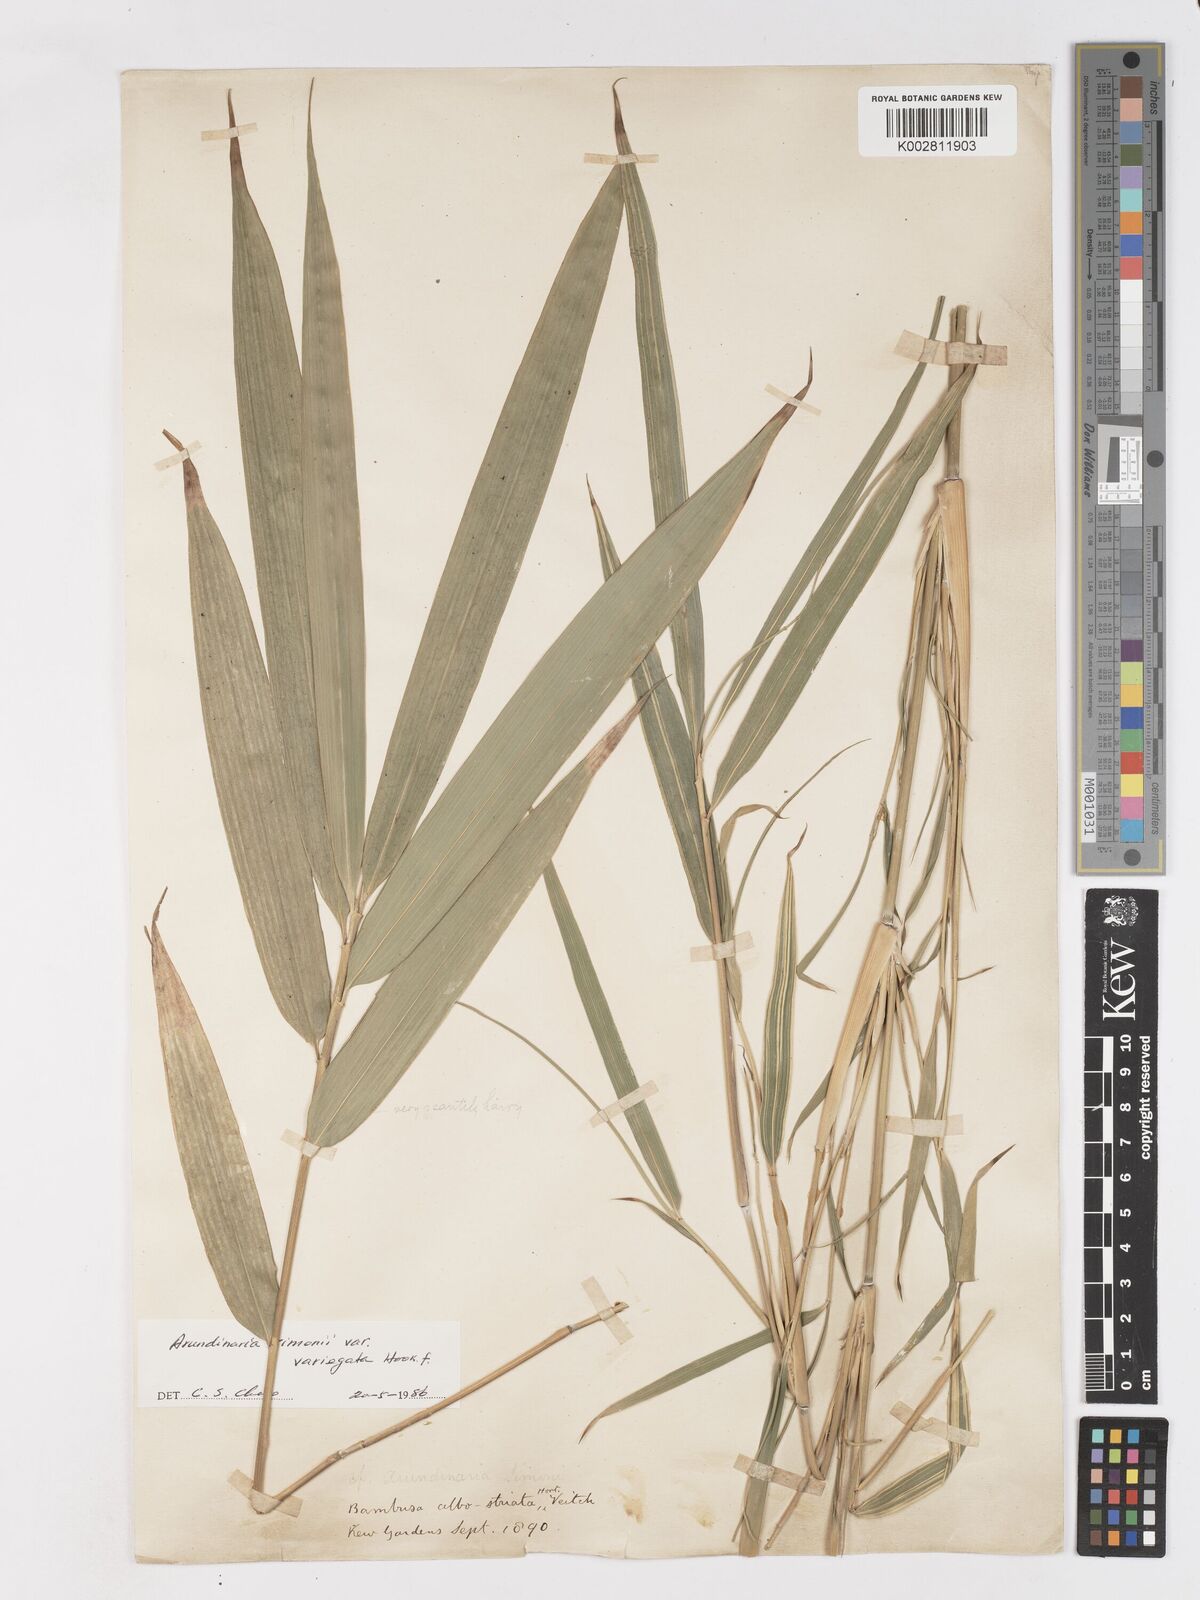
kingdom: Plantae
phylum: Tracheophyta
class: Liliopsida
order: Poales
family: Poaceae
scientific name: Poaceae
